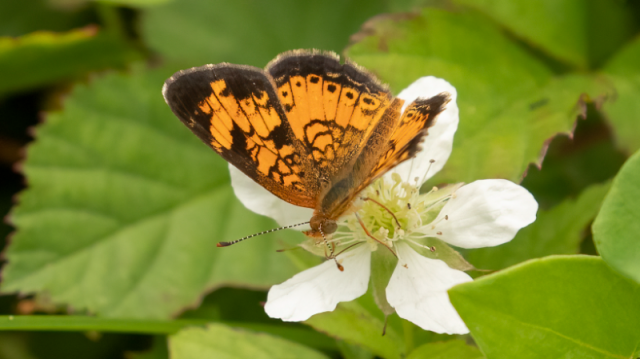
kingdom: Animalia
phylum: Arthropoda
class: Insecta
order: Lepidoptera
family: Nymphalidae
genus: Phyciodes
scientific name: Phyciodes tharos
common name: Northern Crescent
